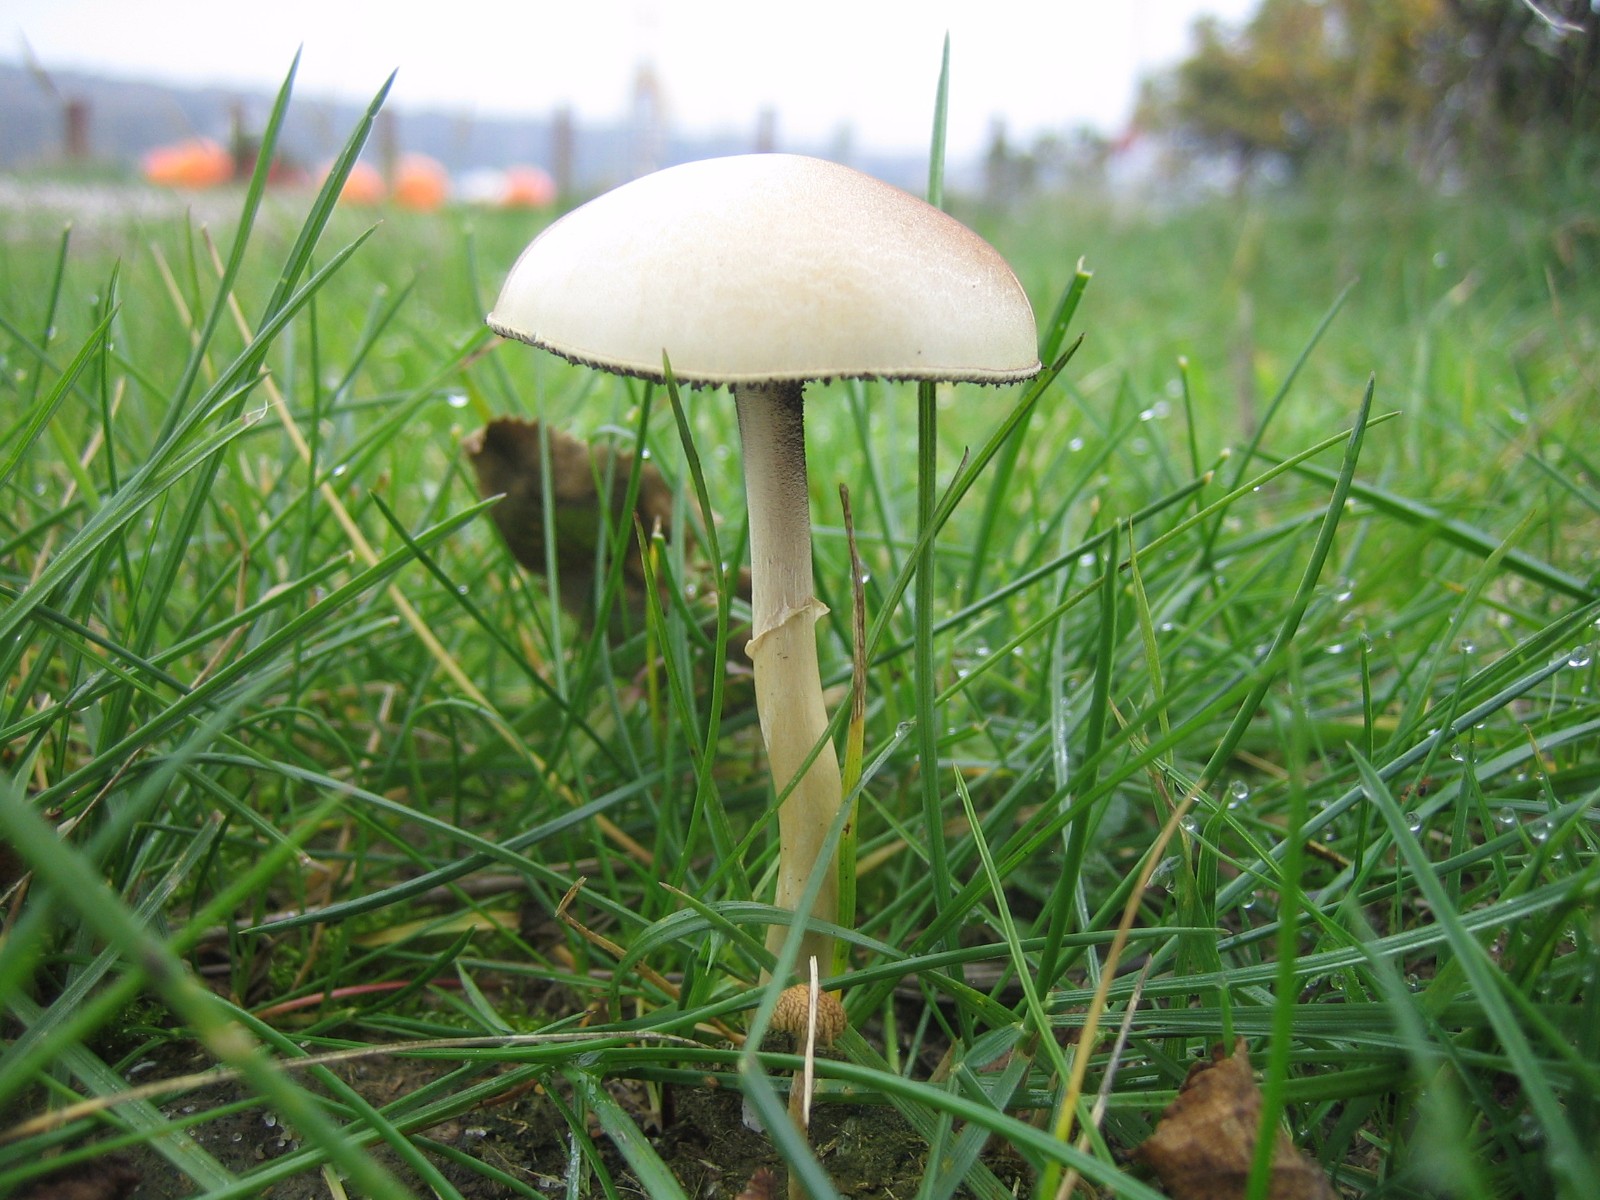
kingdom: Fungi
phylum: Basidiomycota
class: Agaricomycetes
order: Agaricales
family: Strophariaceae
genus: Protostropharia
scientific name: Protostropharia semiglobata
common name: halvkugleformet bredblad
